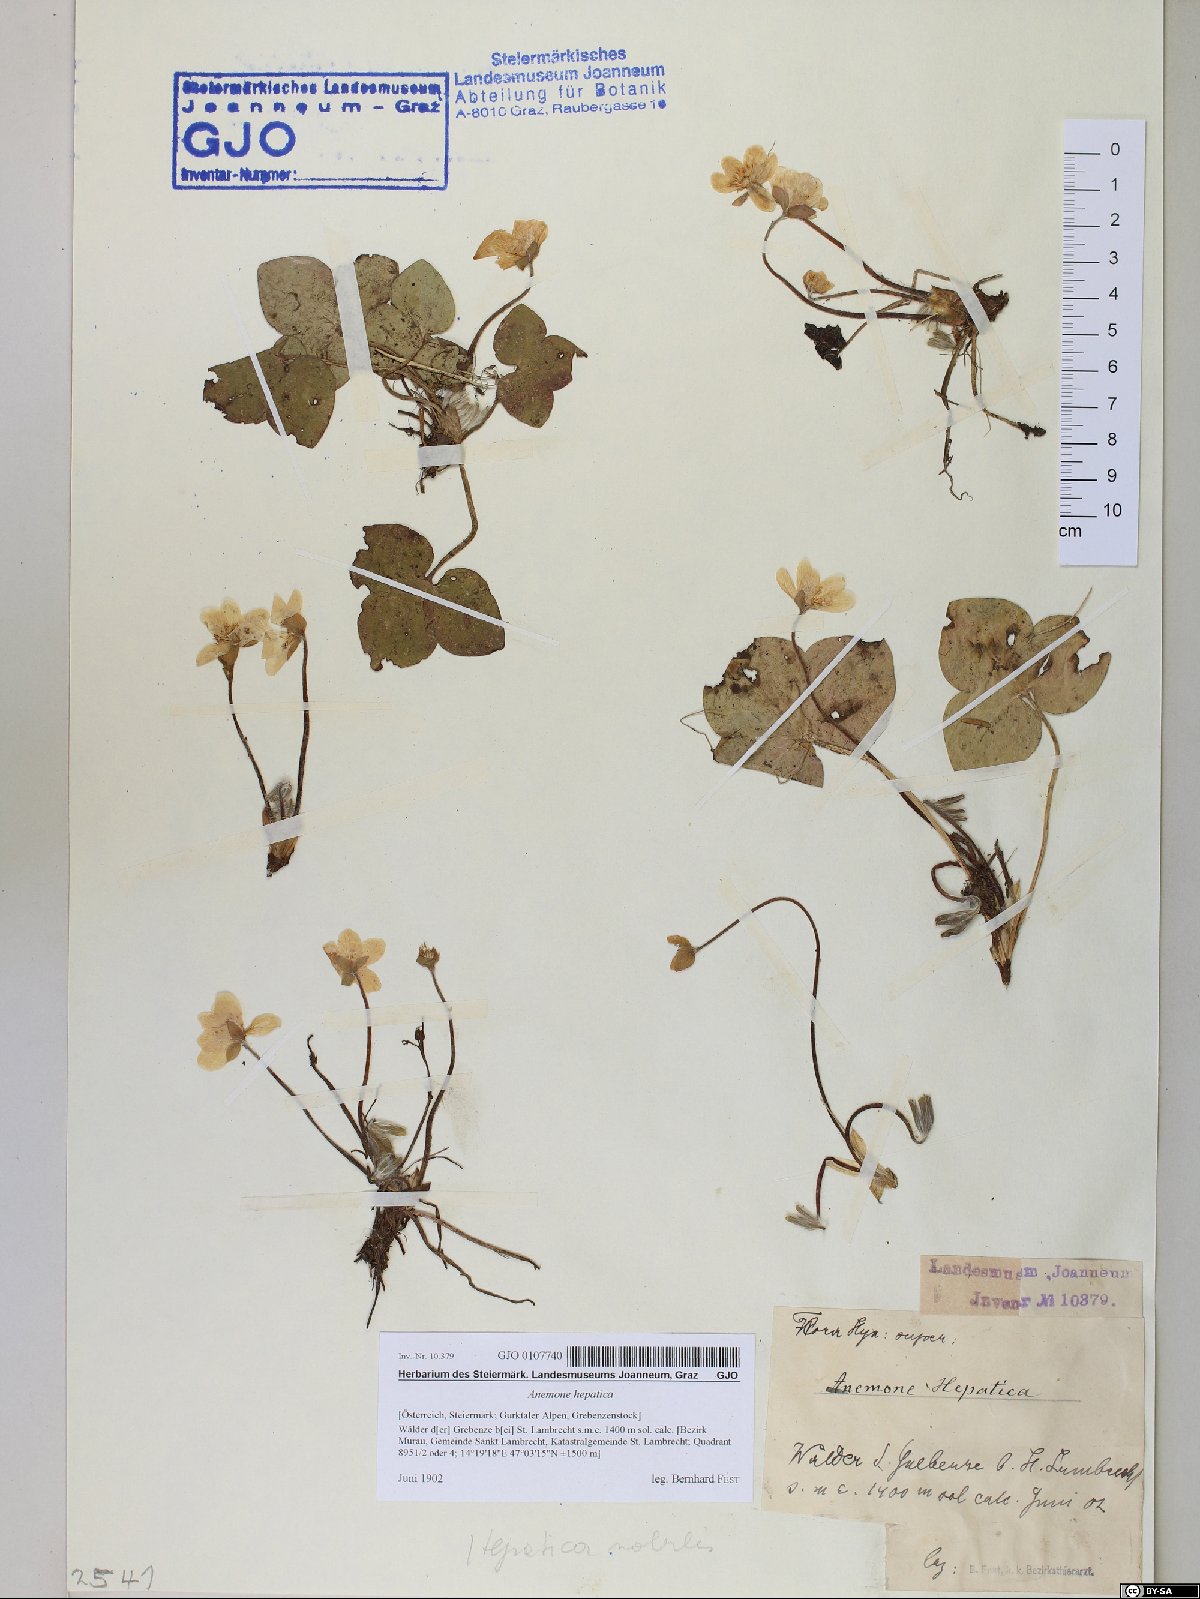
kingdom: Plantae
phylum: Tracheophyta
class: Magnoliopsida
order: Ranunculales
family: Ranunculaceae
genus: Hepatica
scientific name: Hepatica nobilis
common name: Liverleaf
